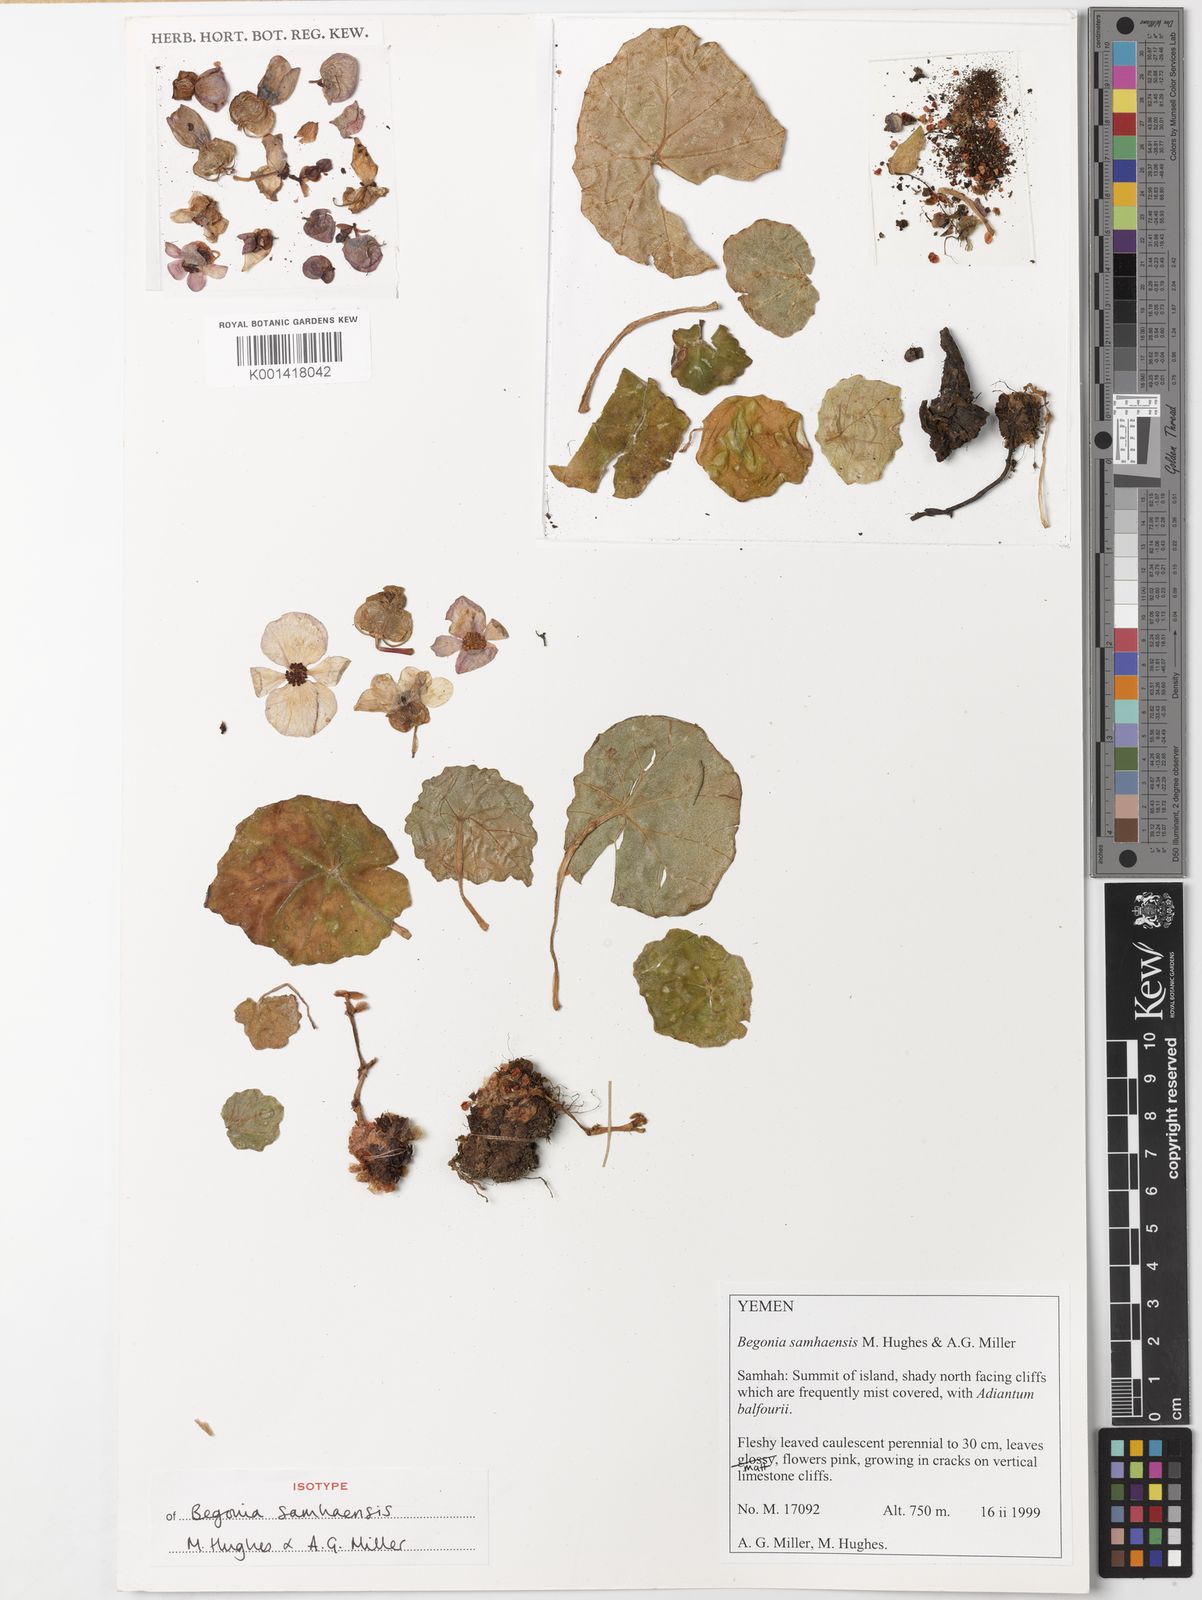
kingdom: Plantae
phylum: Tracheophyta
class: Magnoliopsida
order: Cucurbitales
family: Begoniaceae
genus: Begonia
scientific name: Begonia samhaensis
